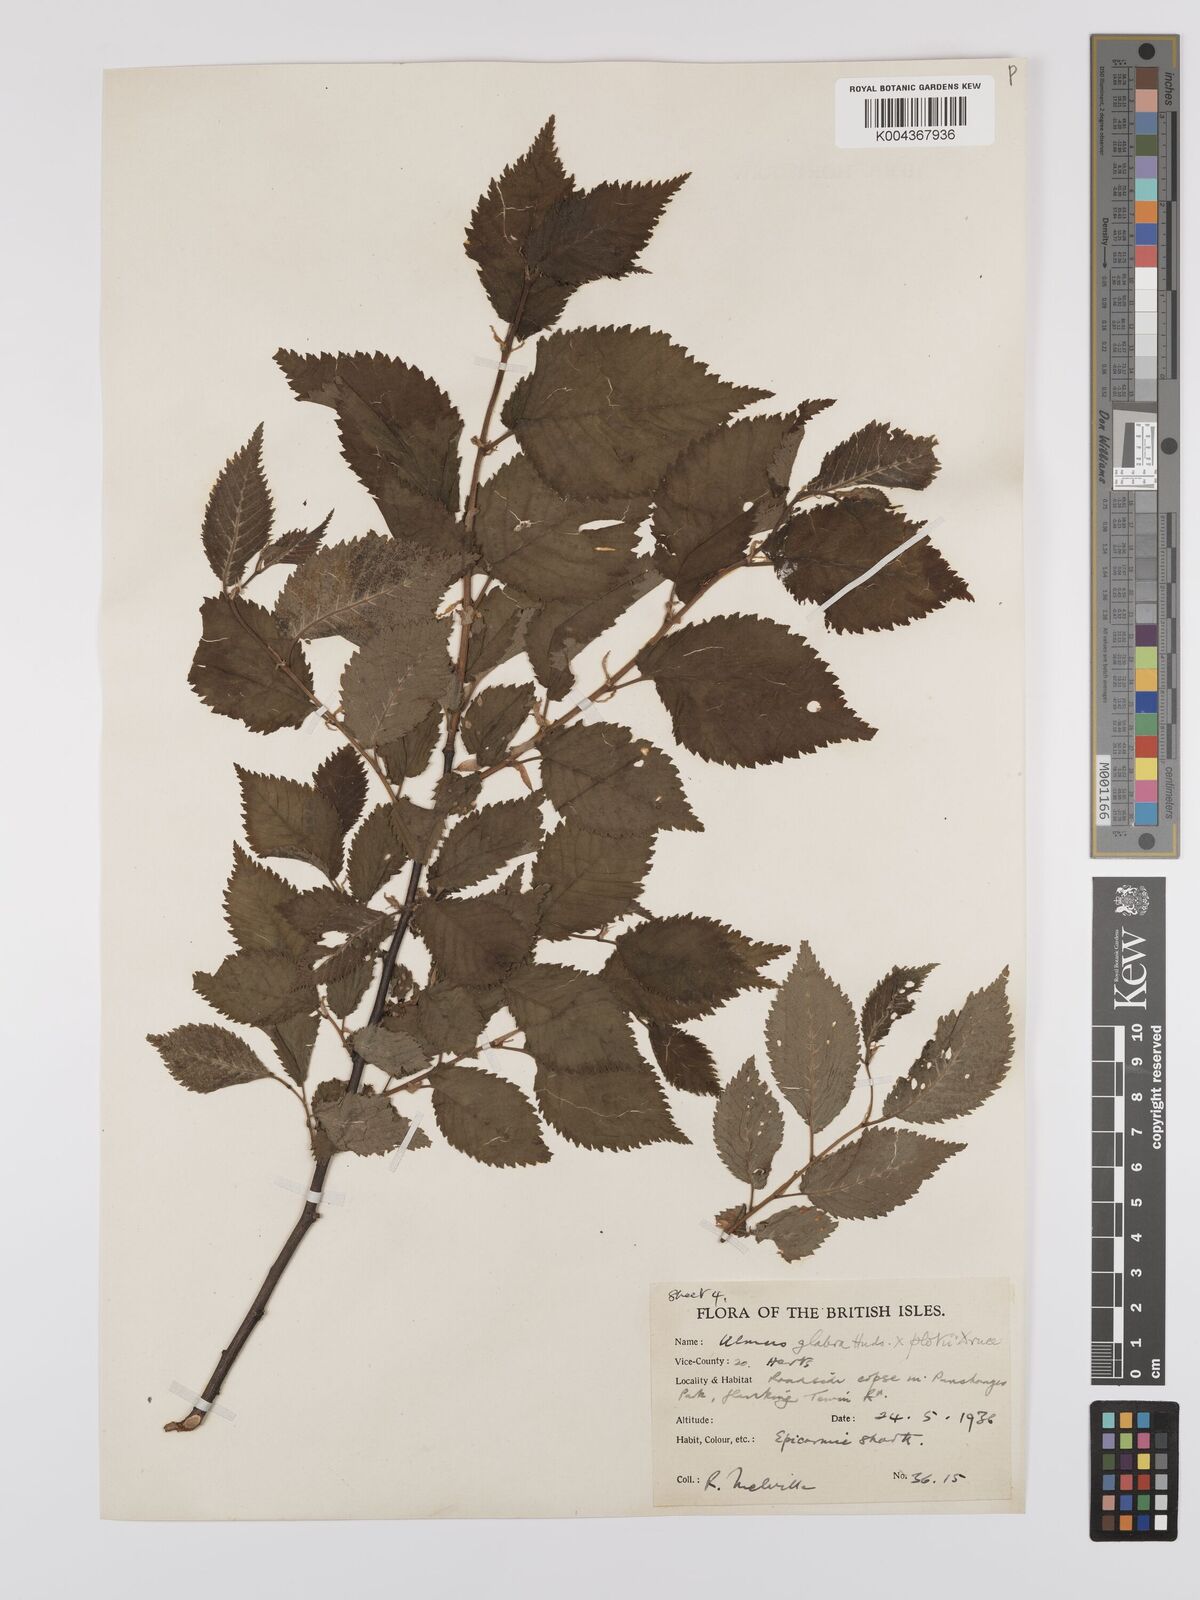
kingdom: Plantae
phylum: Tracheophyta
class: Magnoliopsida
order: Rosales
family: Ulmaceae
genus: Ulmus
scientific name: Ulmus glabra
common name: Wych elm
